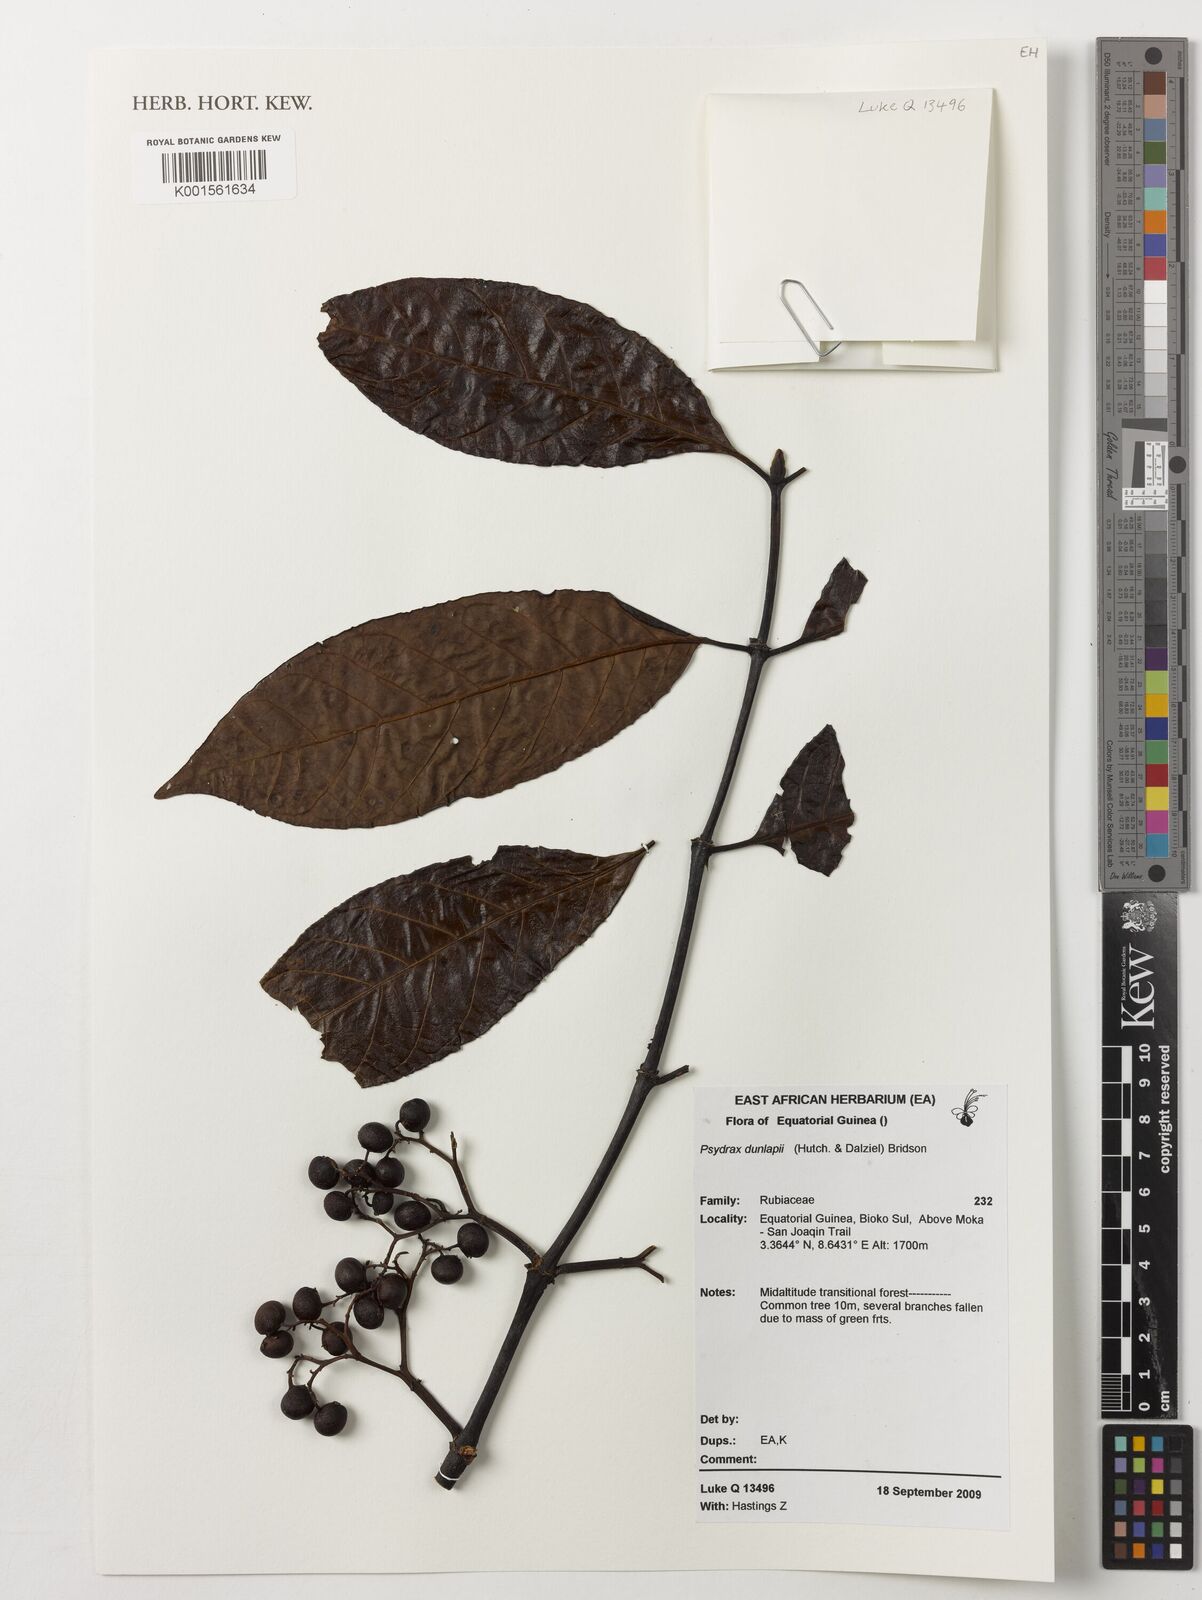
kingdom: Plantae
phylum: Tracheophyta
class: Magnoliopsida
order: Gentianales
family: Rubiaceae
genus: Psydrax
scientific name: Psydrax dunlapii
